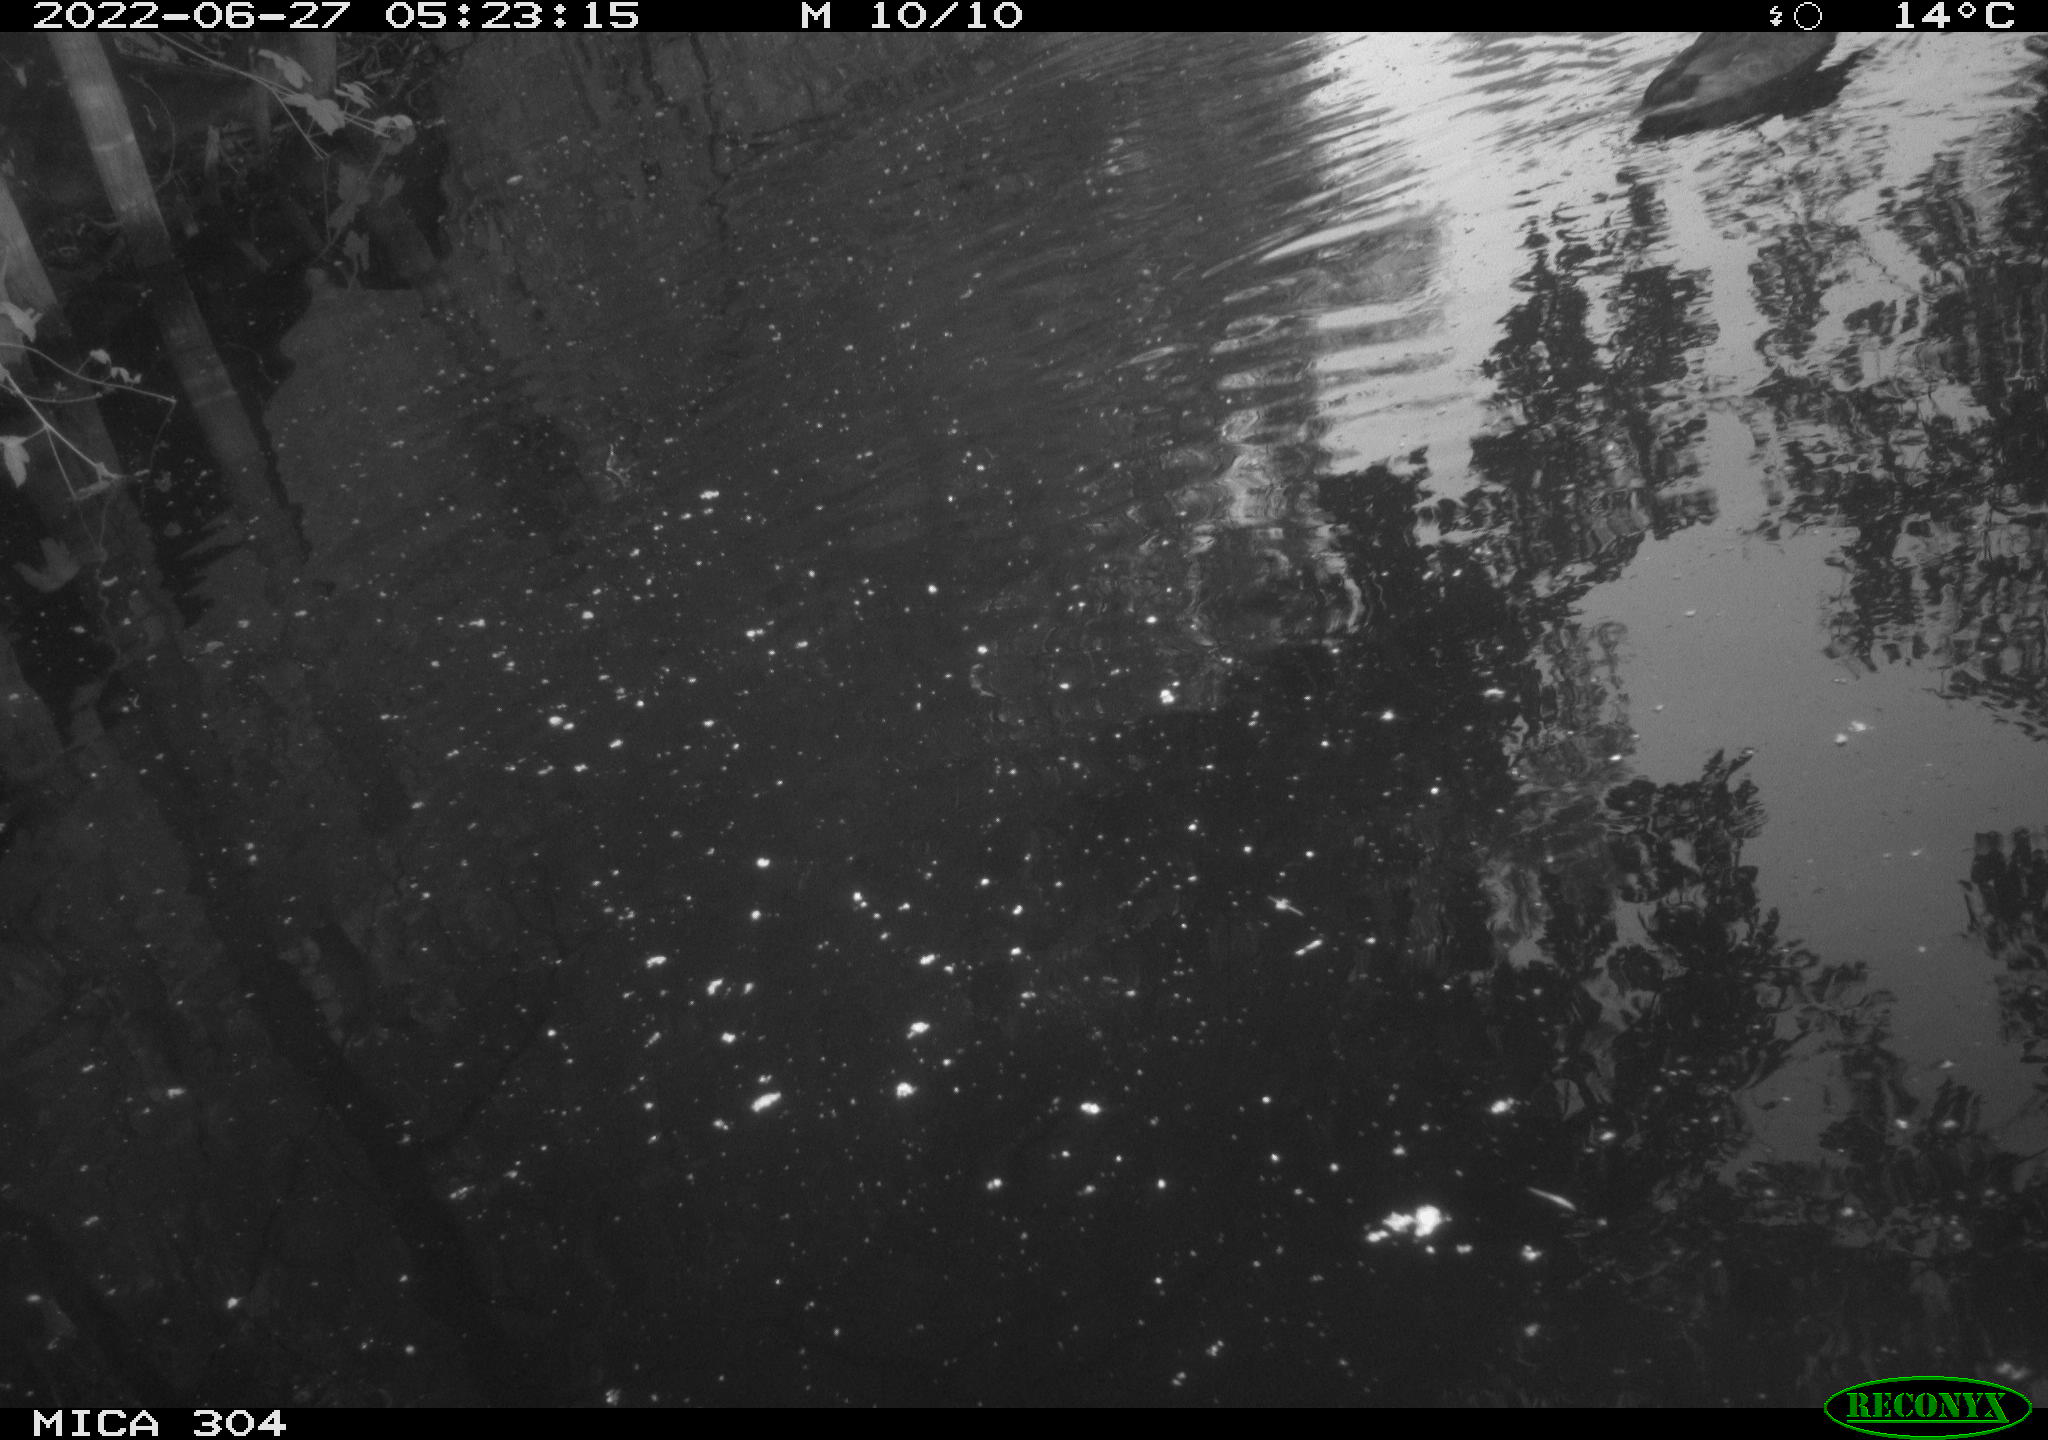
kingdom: Animalia
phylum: Chordata
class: Aves
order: Gruiformes
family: Rallidae
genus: Gallinula
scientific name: Gallinula chloropus
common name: Common moorhen
